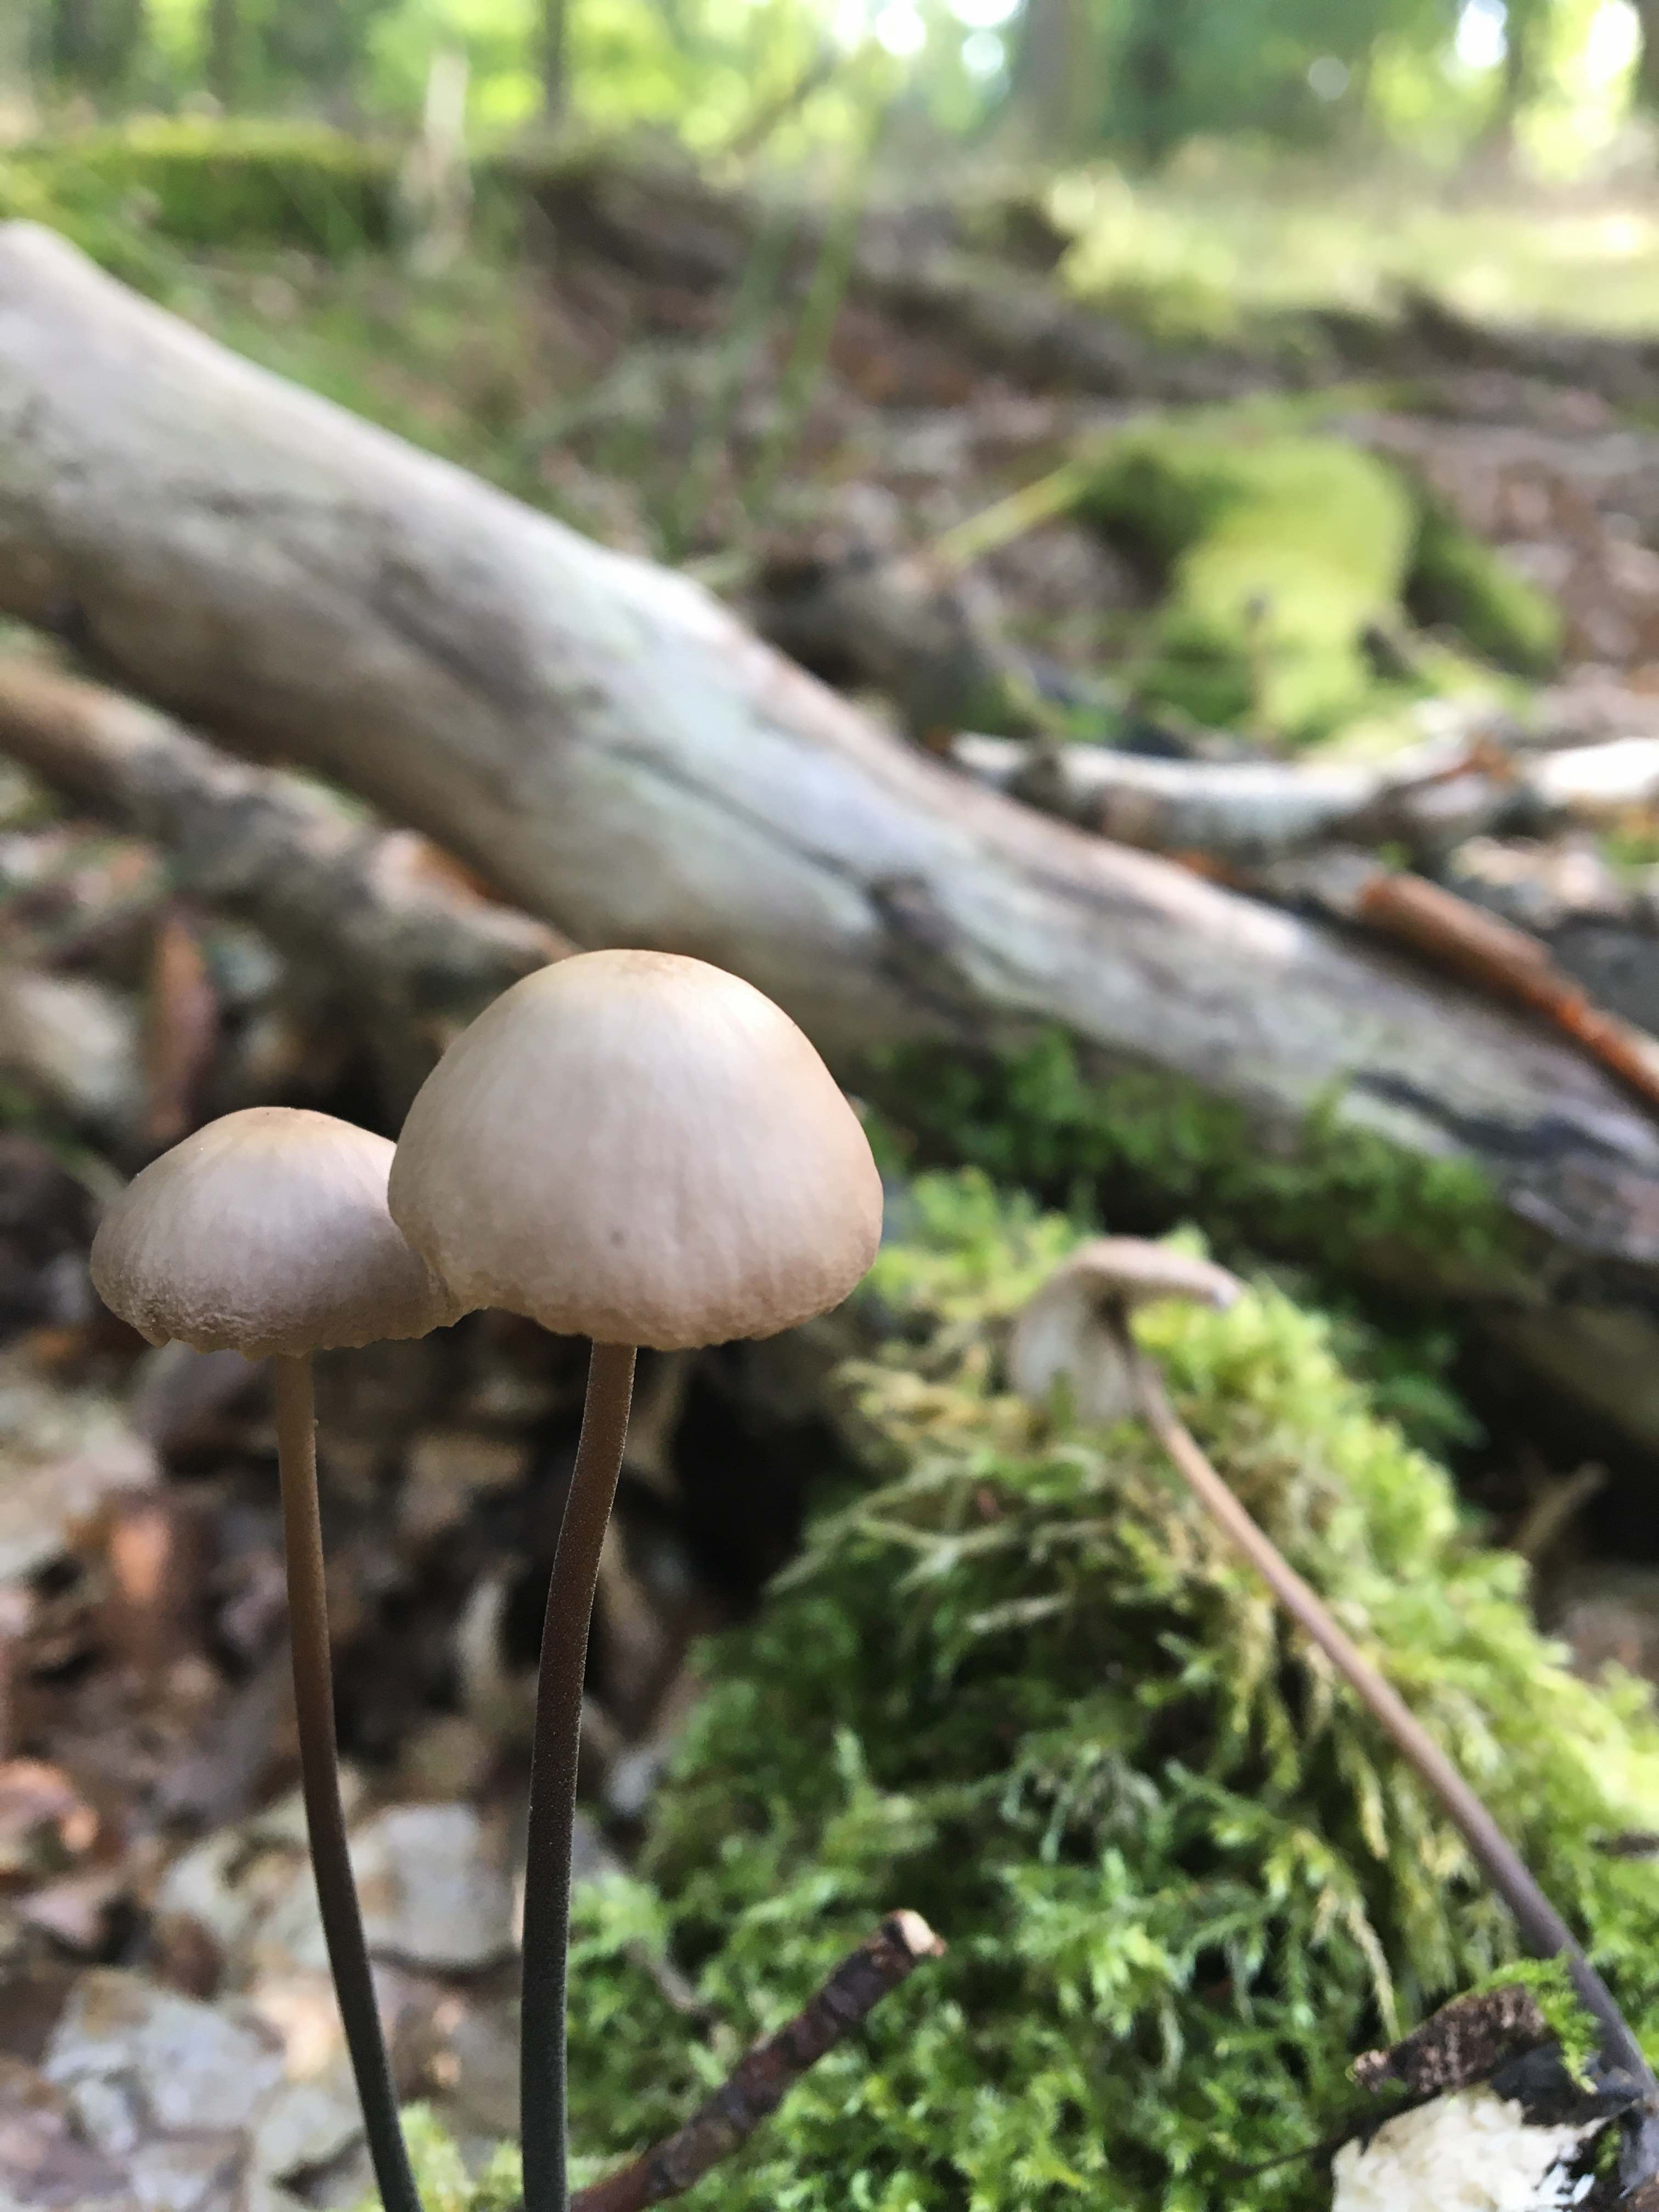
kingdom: Fungi
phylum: Basidiomycota
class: Agaricomycetes
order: Agaricales
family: Omphalotaceae
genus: Mycetinis
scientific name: Mycetinis alliaceus
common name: stor løghat
